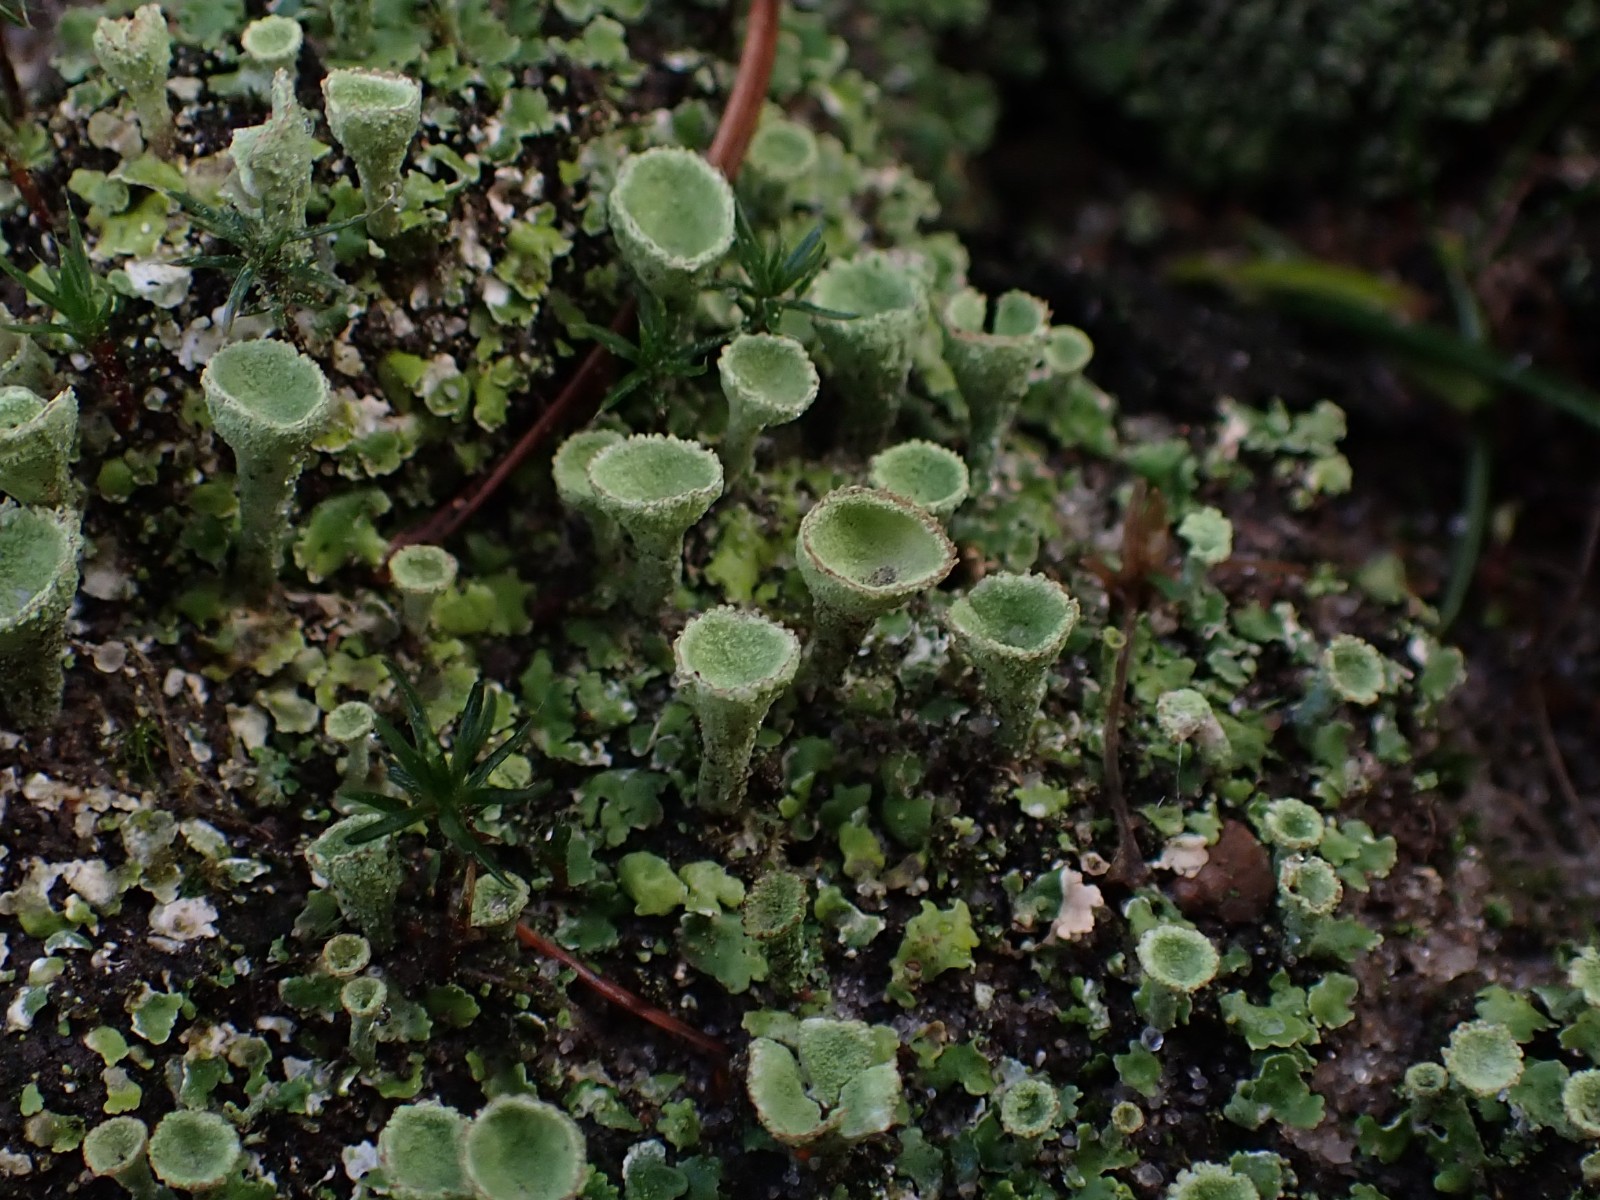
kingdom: Fungi
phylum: Ascomycota
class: Lecanoromycetes
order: Lecanorales
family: Cladoniaceae
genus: Cladonia
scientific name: Cladonia
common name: brungrøn bægerlav
